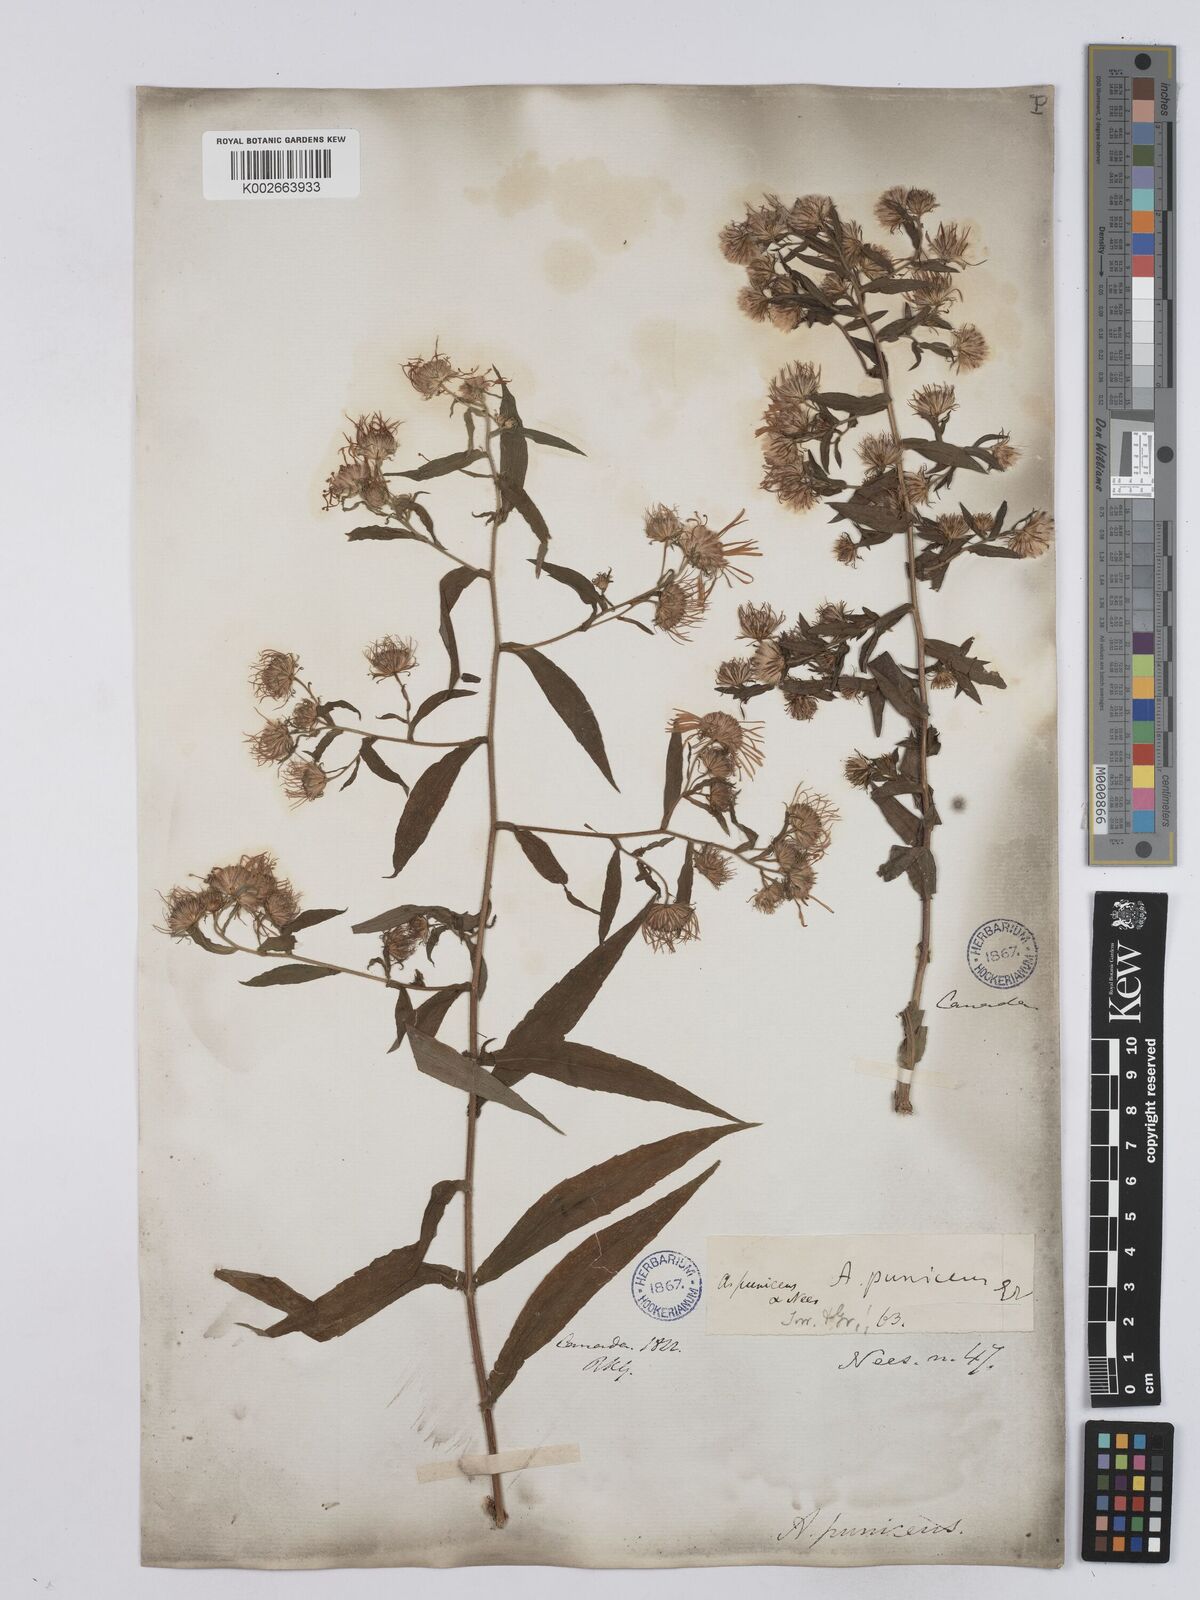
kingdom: Plantae
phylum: Tracheophyta
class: Magnoliopsida
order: Asterales
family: Asteraceae
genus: Symphyotrichum
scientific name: Symphyotrichum puniceum
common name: Bog aster
